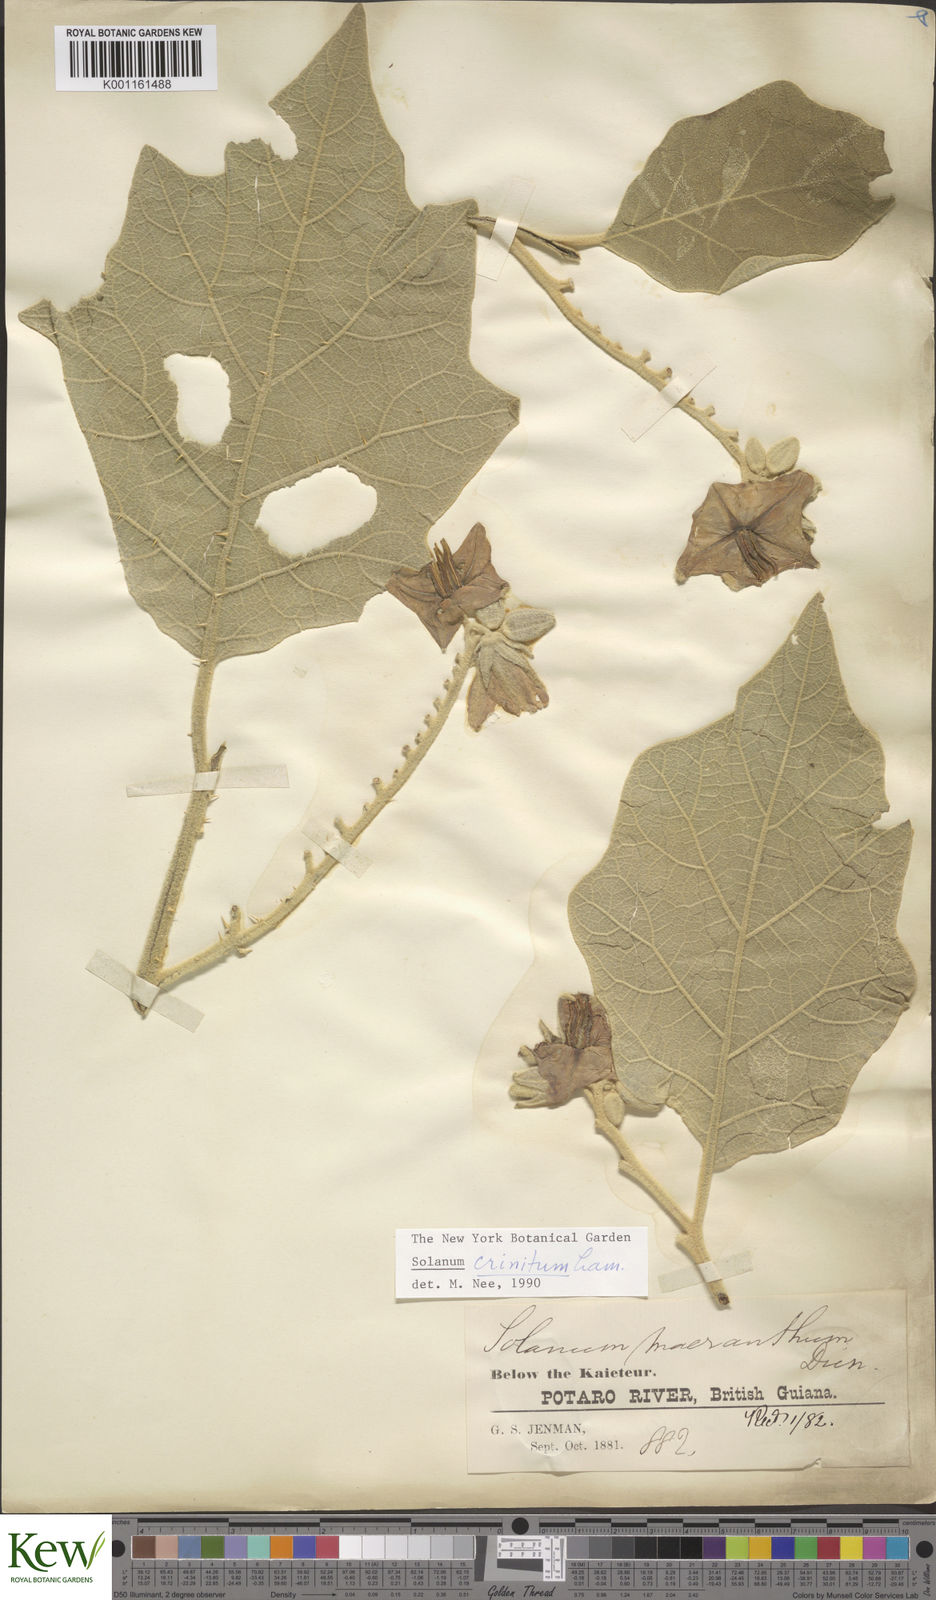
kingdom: Plantae
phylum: Tracheophyta
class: Magnoliopsida
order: Solanales
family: Solanaceae
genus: Solanum
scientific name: Solanum crinitum
